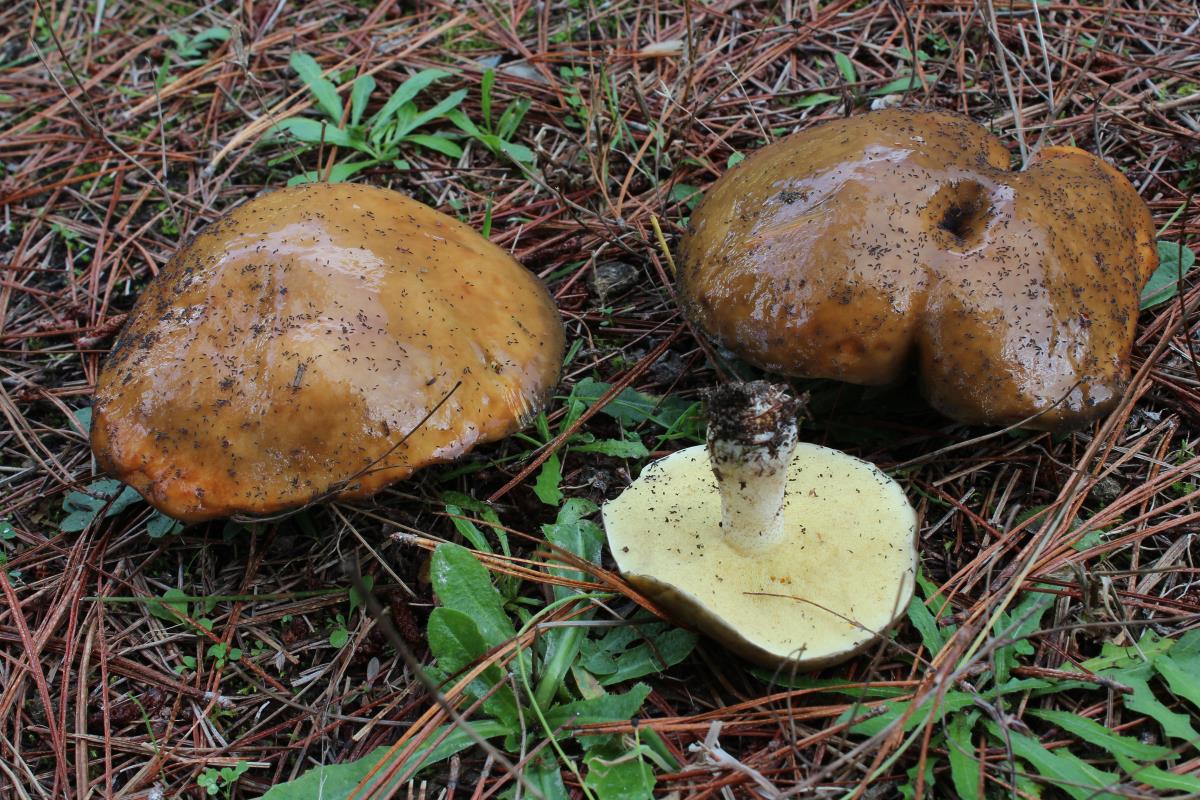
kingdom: Fungi
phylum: Basidiomycota
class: Agaricomycetes
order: Boletales
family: Suillaceae
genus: Suillus
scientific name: Suillus subacerbus
